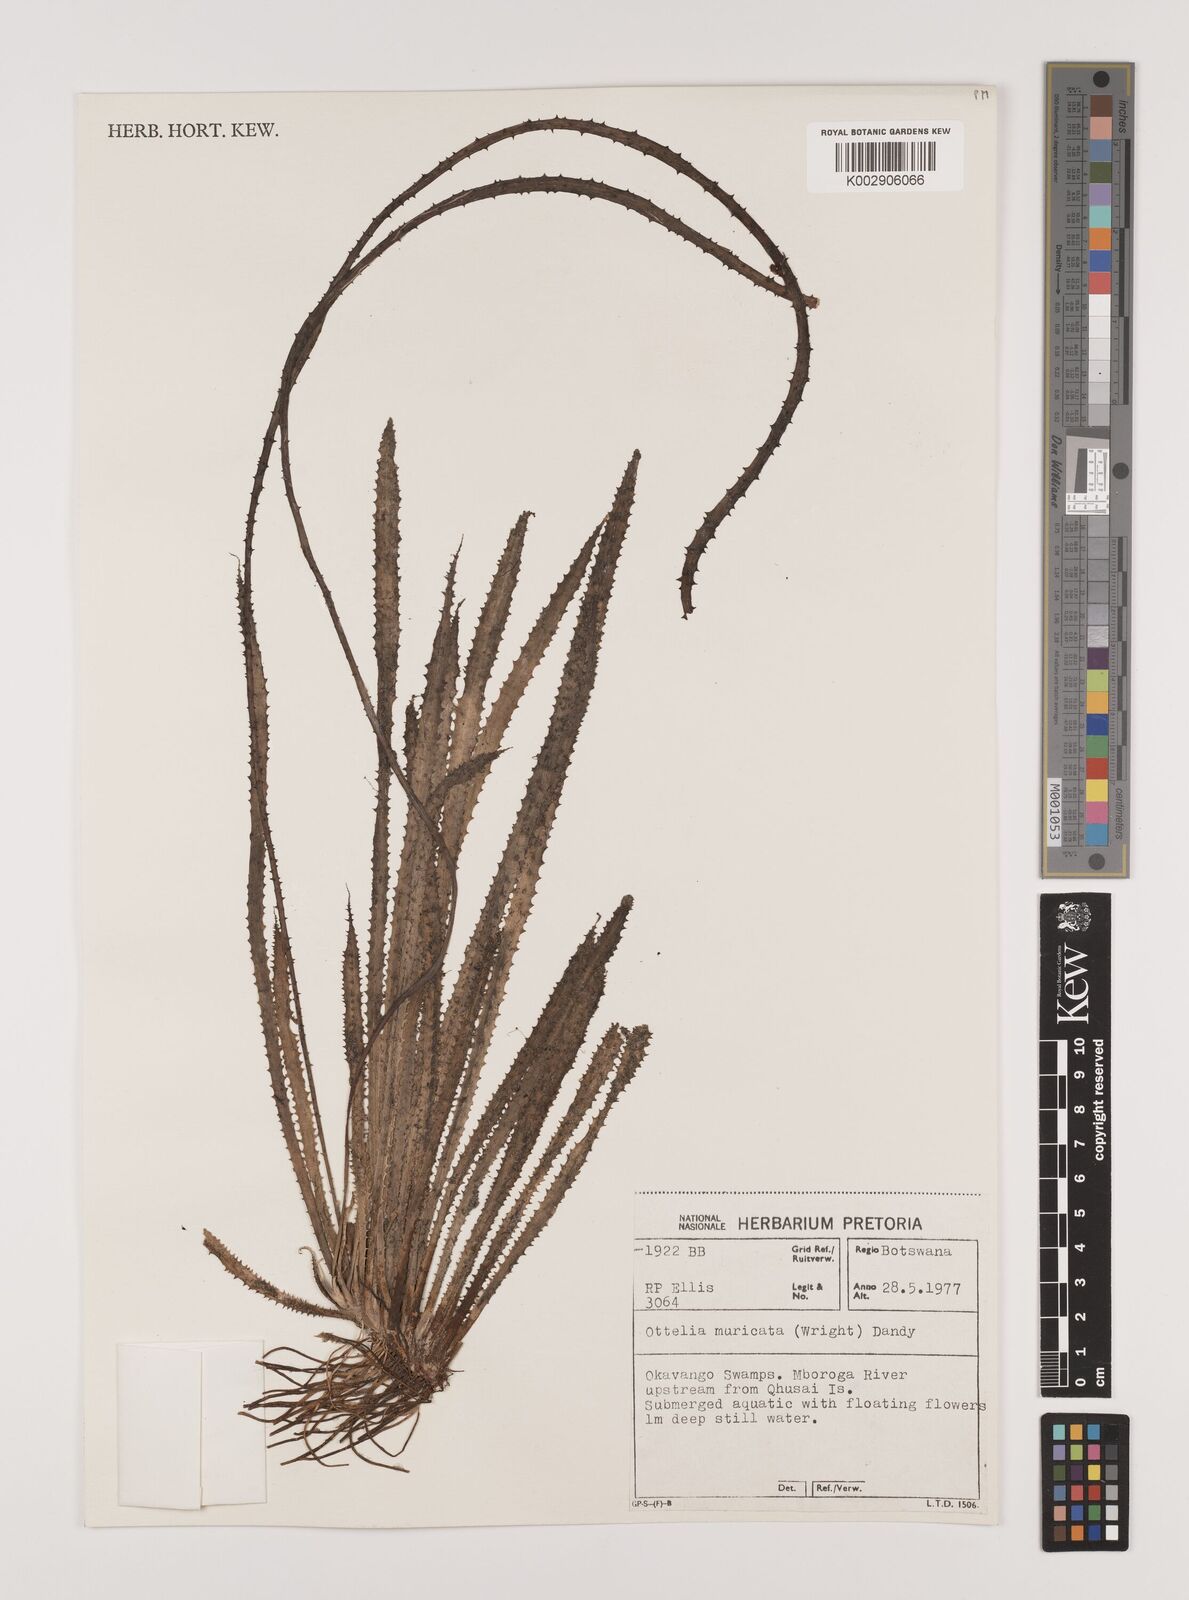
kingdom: Plantae
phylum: Tracheophyta
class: Liliopsida
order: Alismatales
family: Hydrocharitaceae
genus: Ottelia
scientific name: Ottelia muricata
